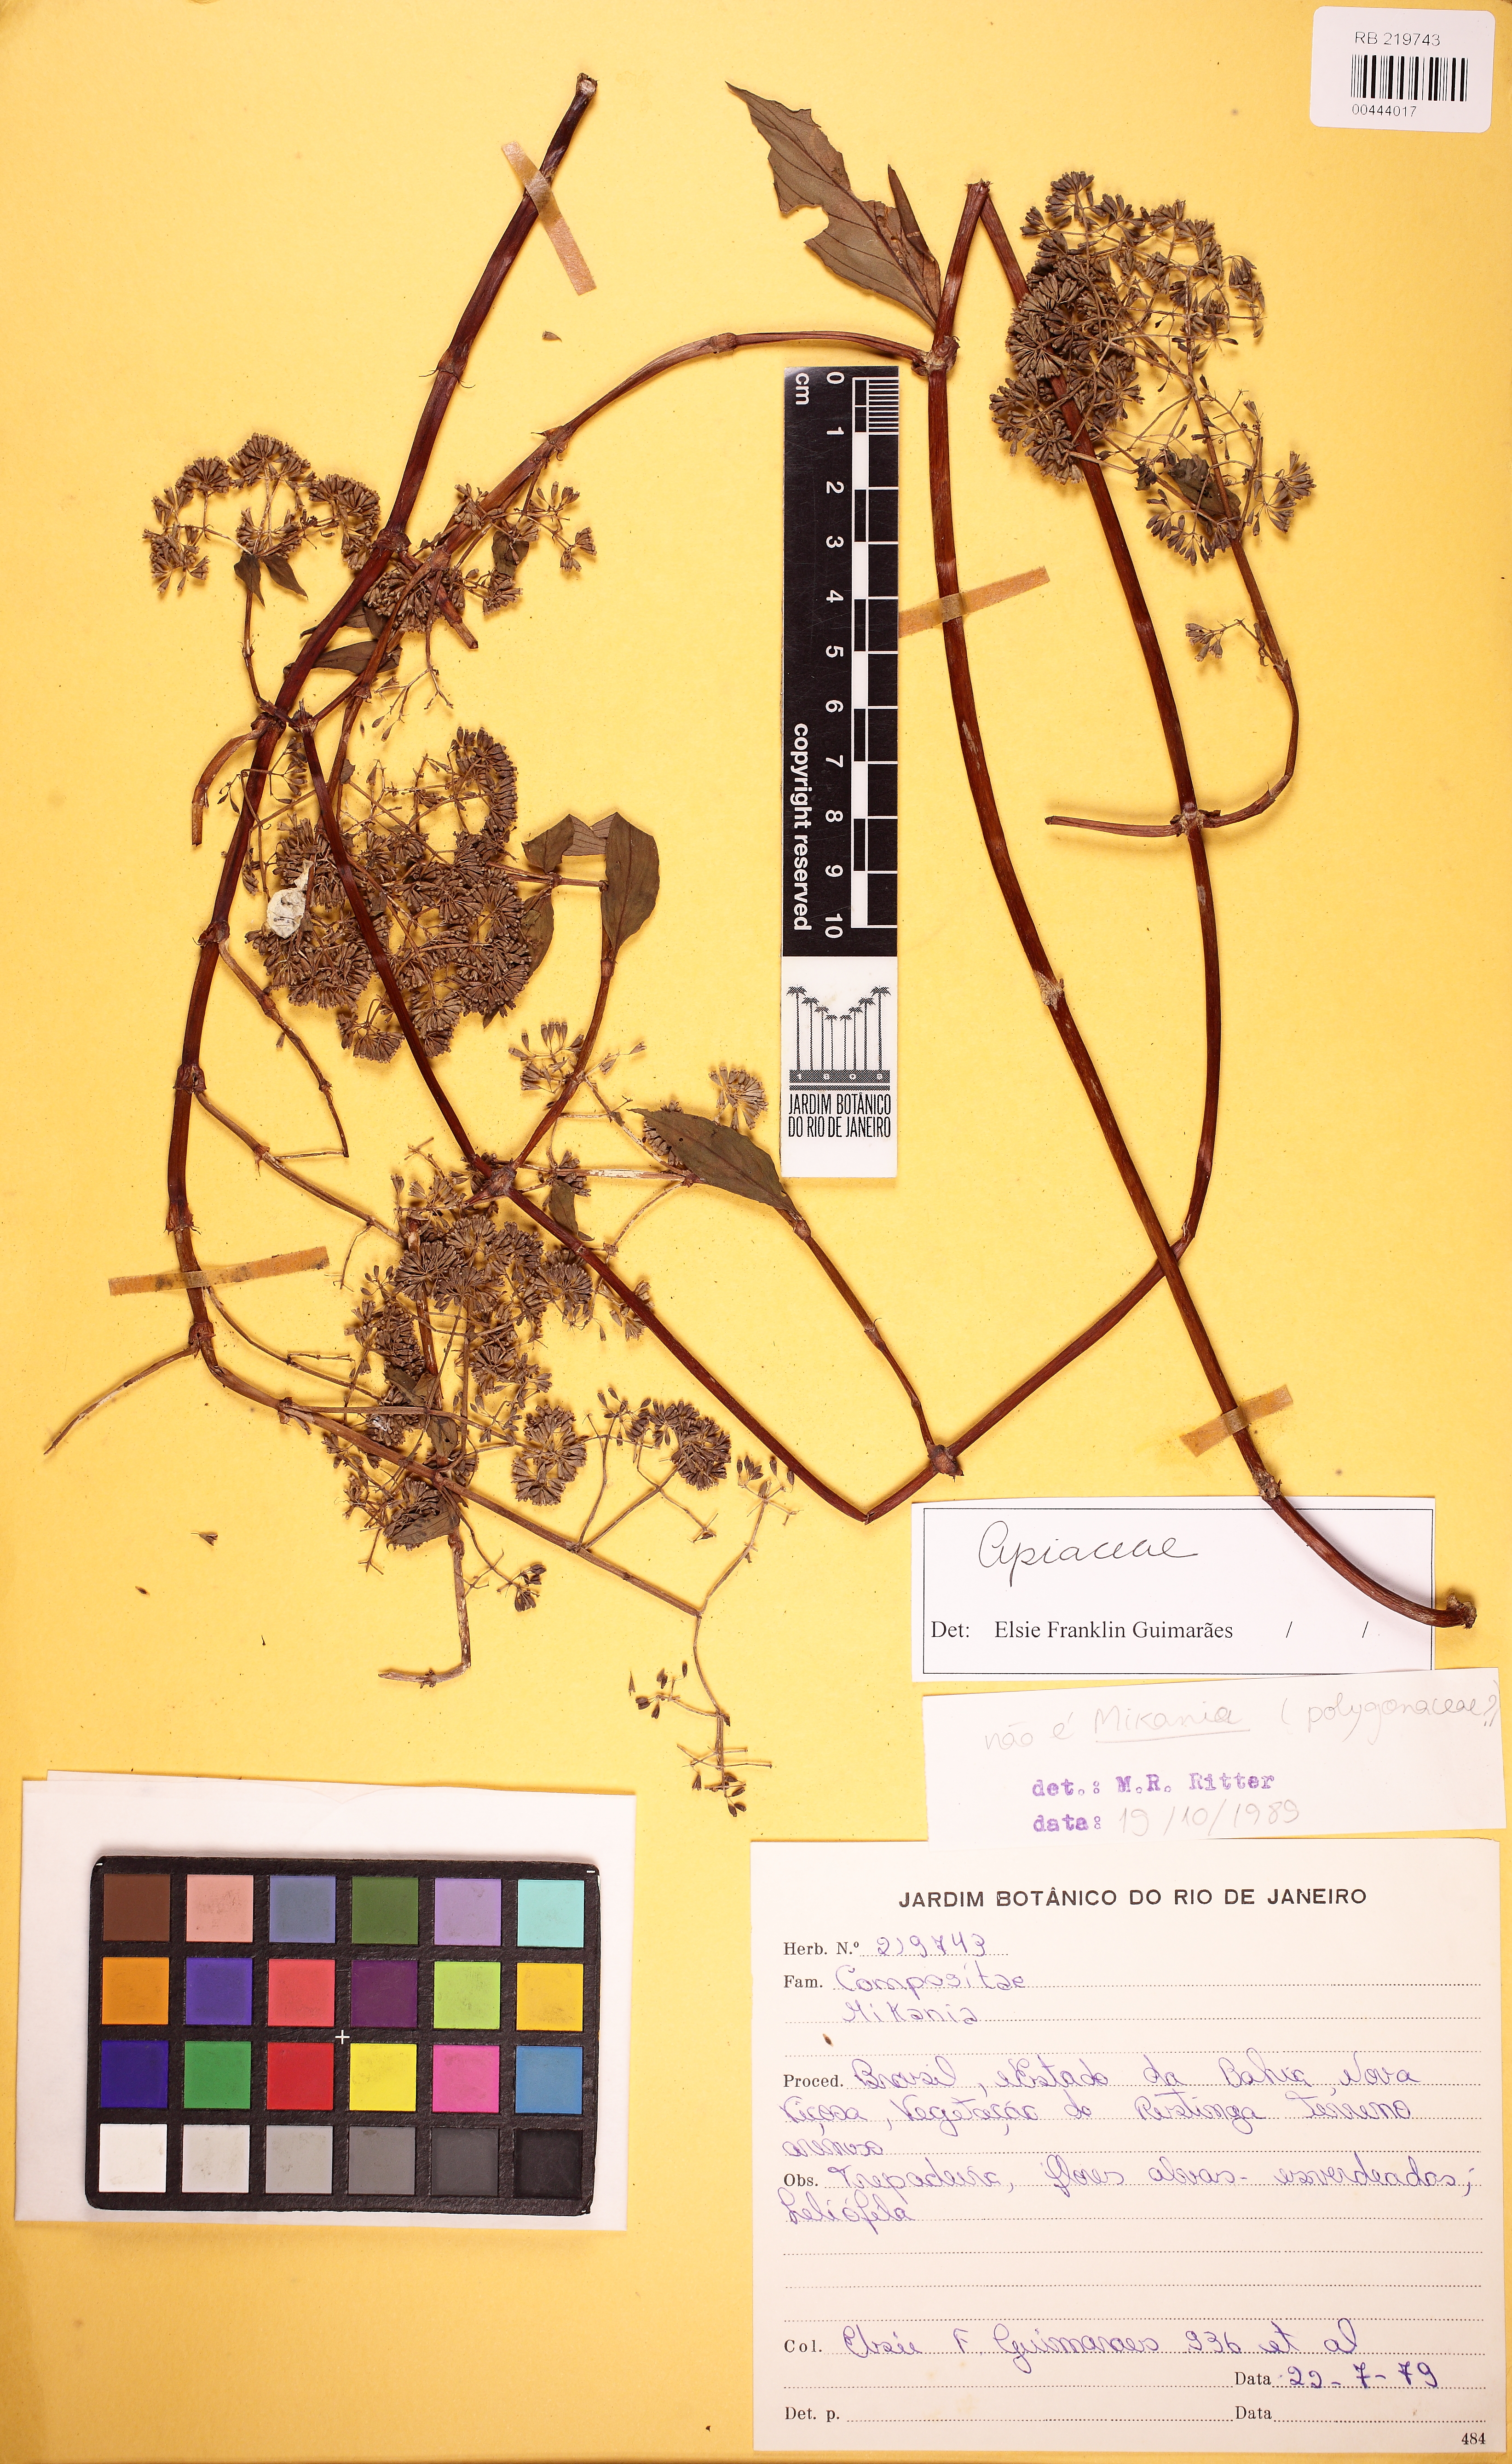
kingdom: Plantae
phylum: Tracheophyta
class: Magnoliopsida
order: Gentianales
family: Rubiaceae
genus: Emmeorhiza
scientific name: Emmeorhiza umbellata
